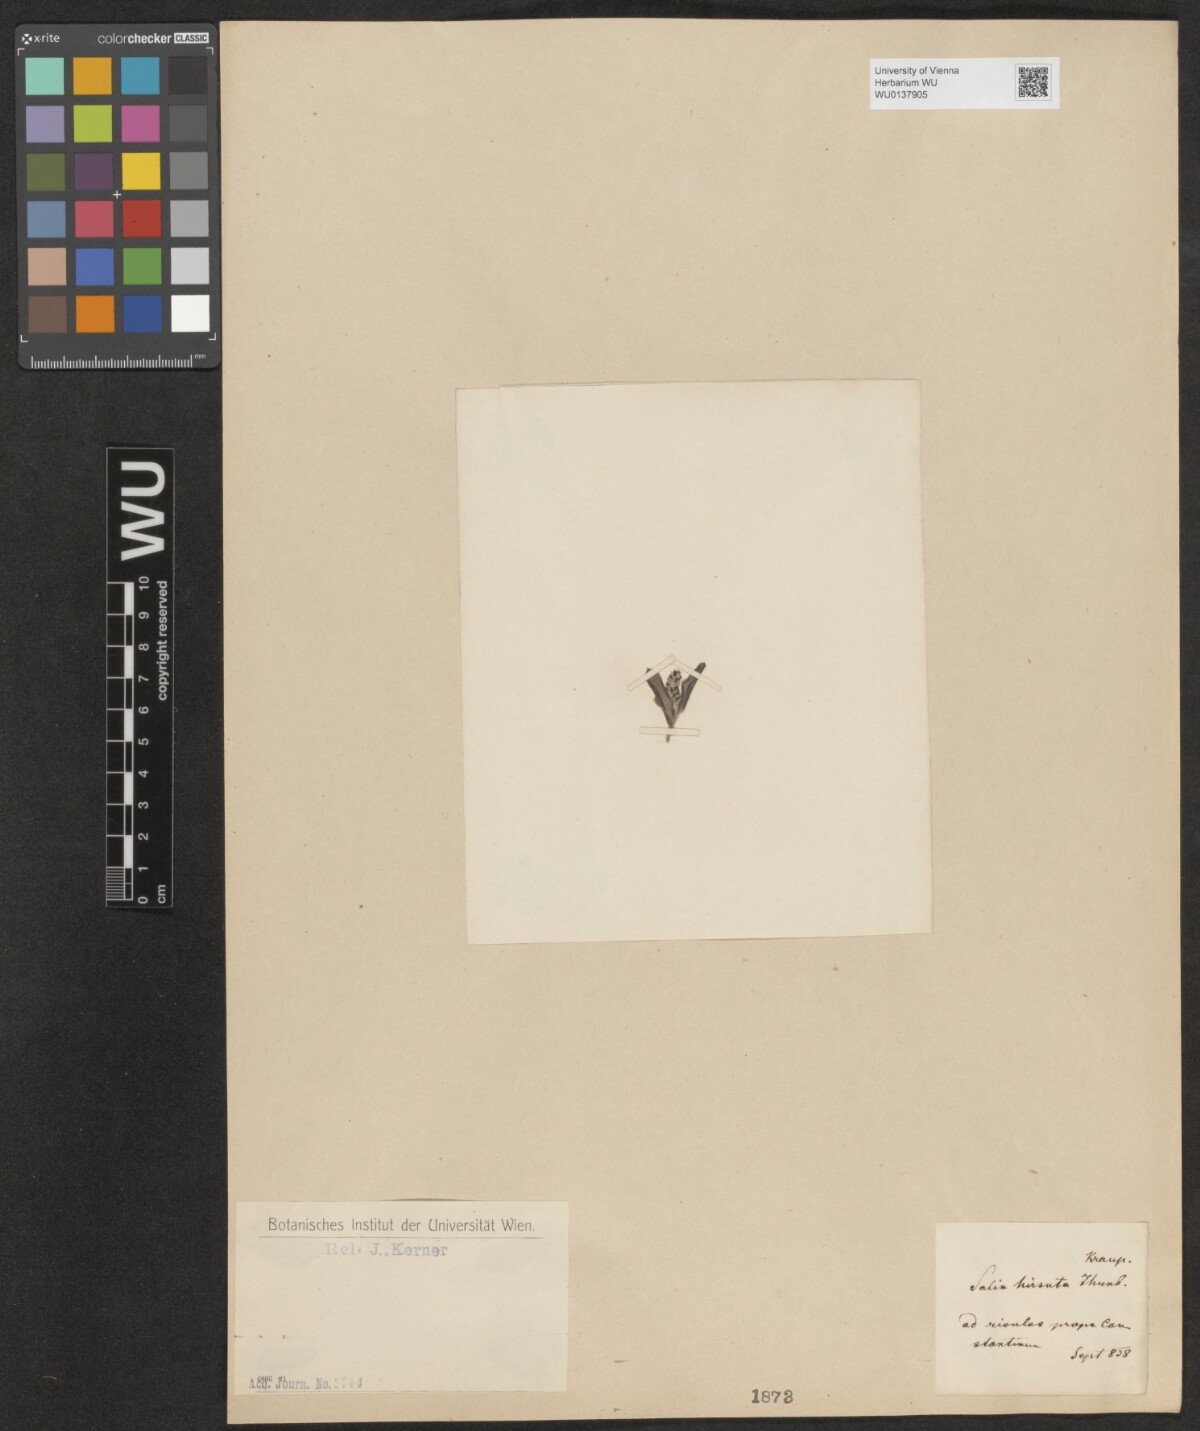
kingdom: Plantae
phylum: Tracheophyta
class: Magnoliopsida
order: Malpighiales
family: Salicaceae
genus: Salix
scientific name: Salix mucronata
